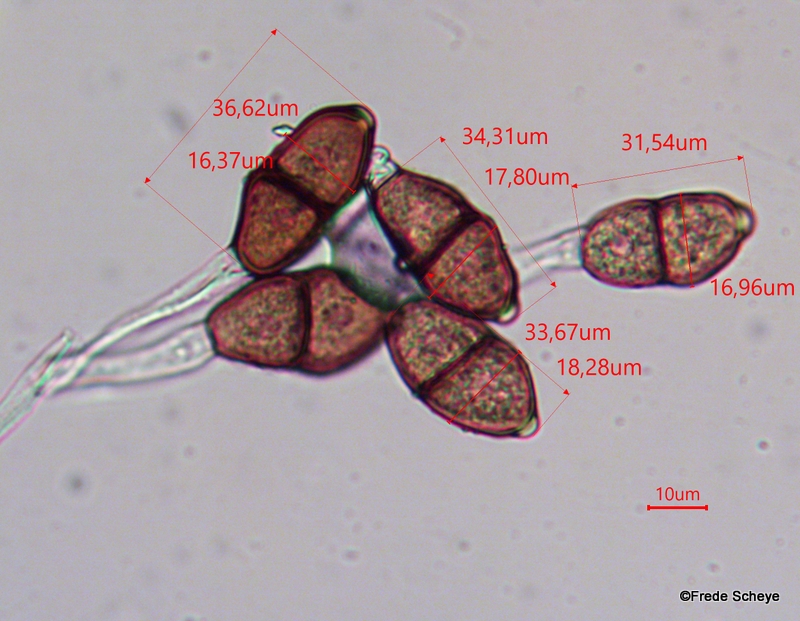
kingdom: Fungi
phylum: Basidiomycota
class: Pucciniomycetes
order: Pucciniales
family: Pucciniaceae
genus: Puccinia
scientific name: Puccinia
